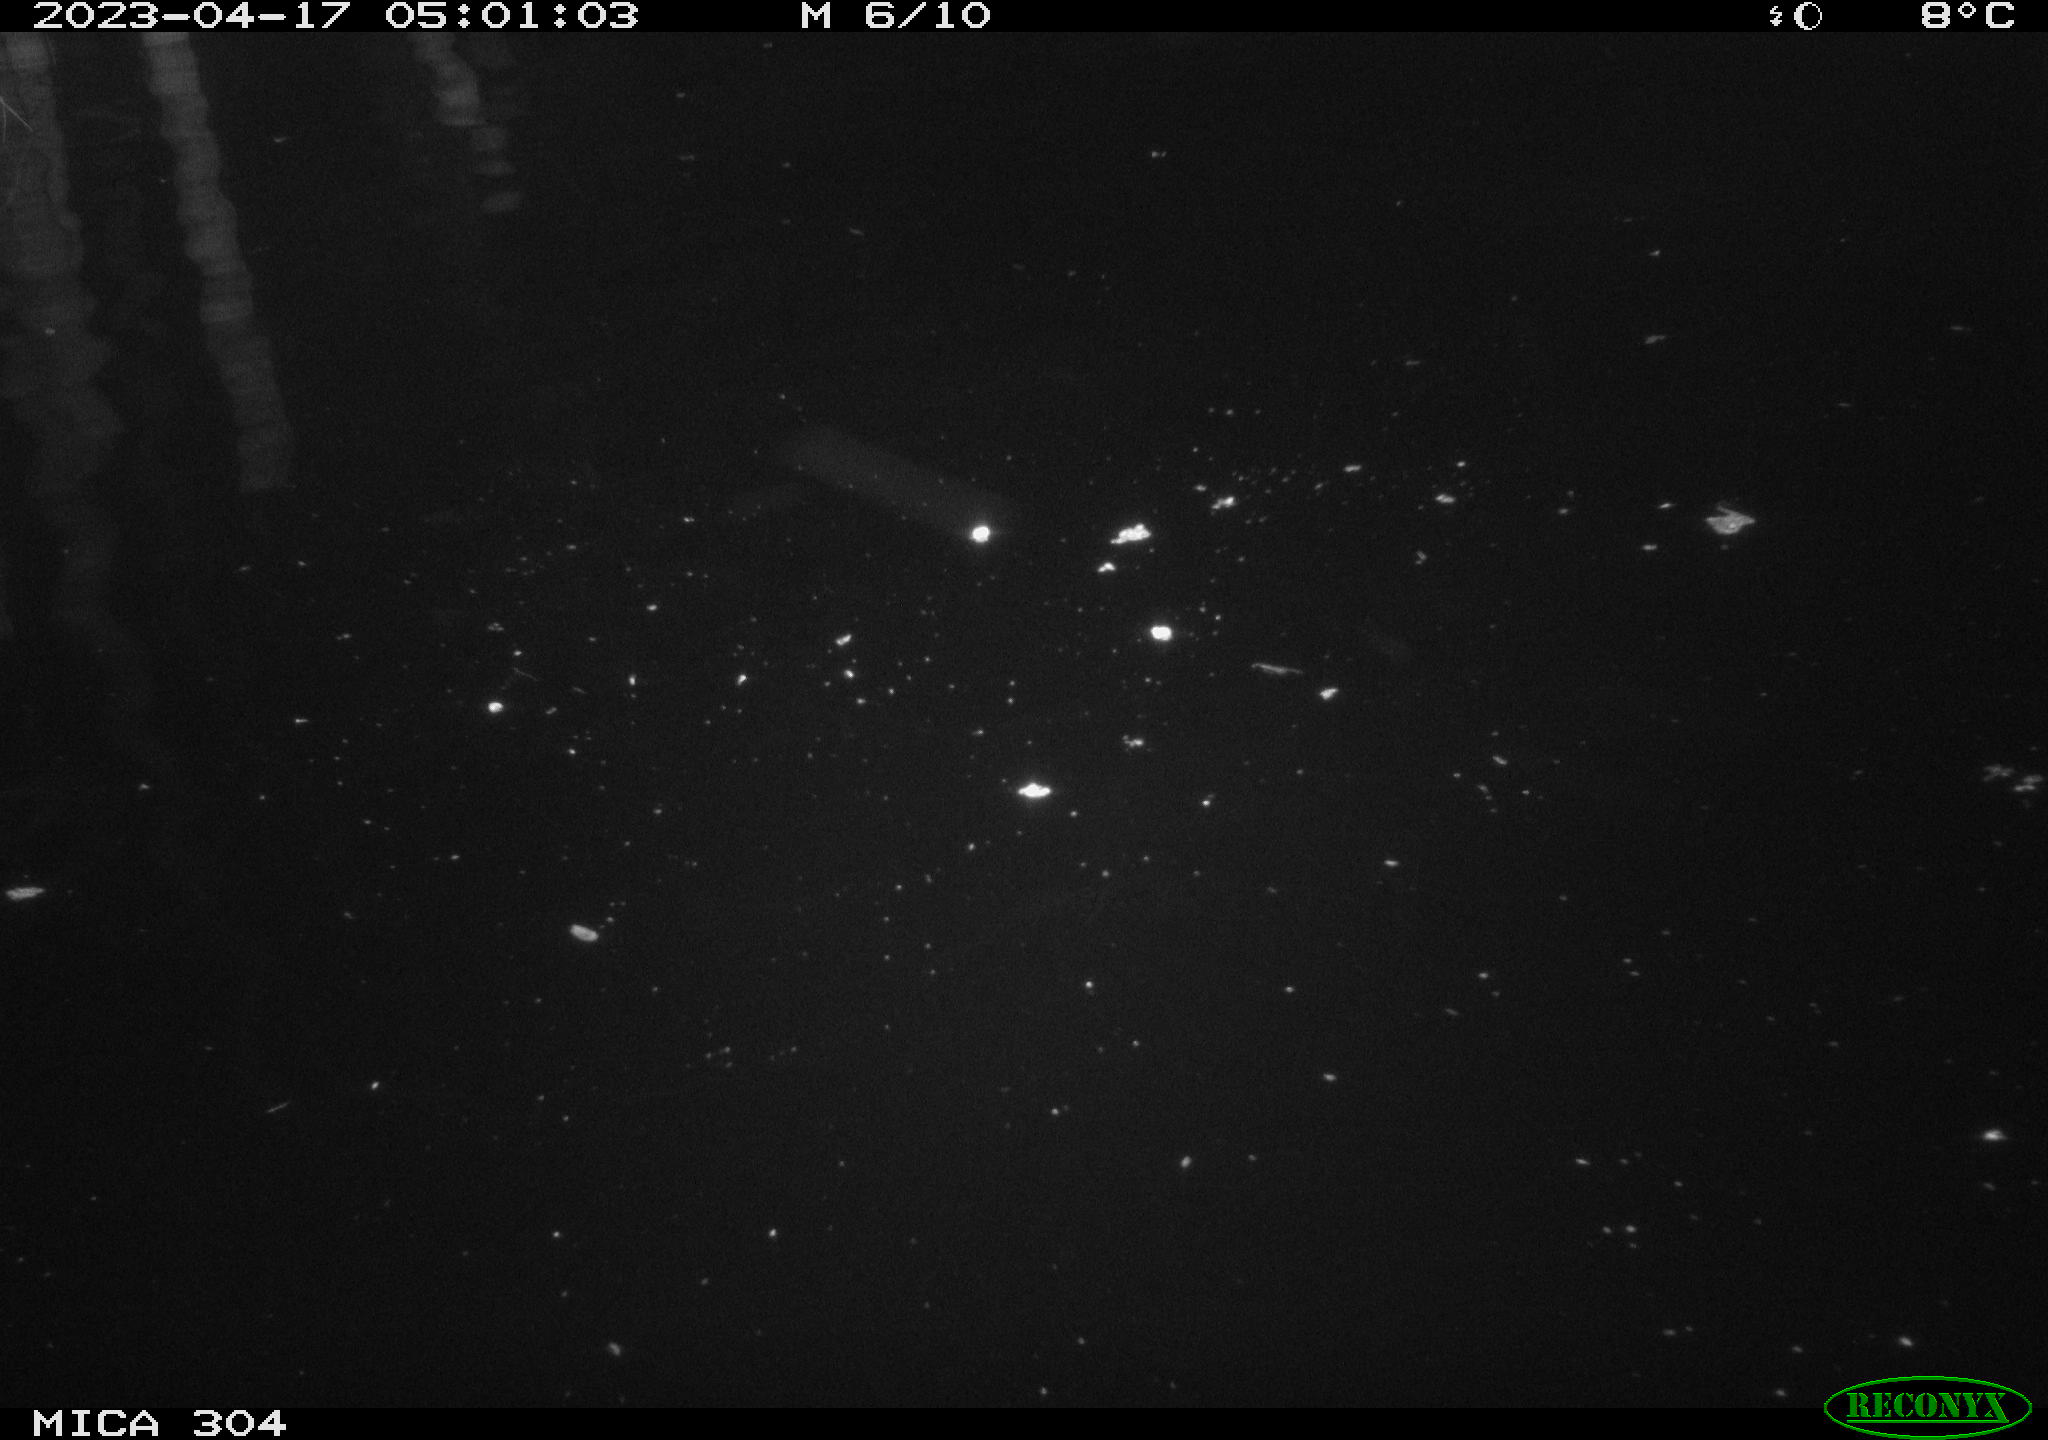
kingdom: Animalia
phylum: Chordata
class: Aves
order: Anseriformes
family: Anatidae
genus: Anas
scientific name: Anas
